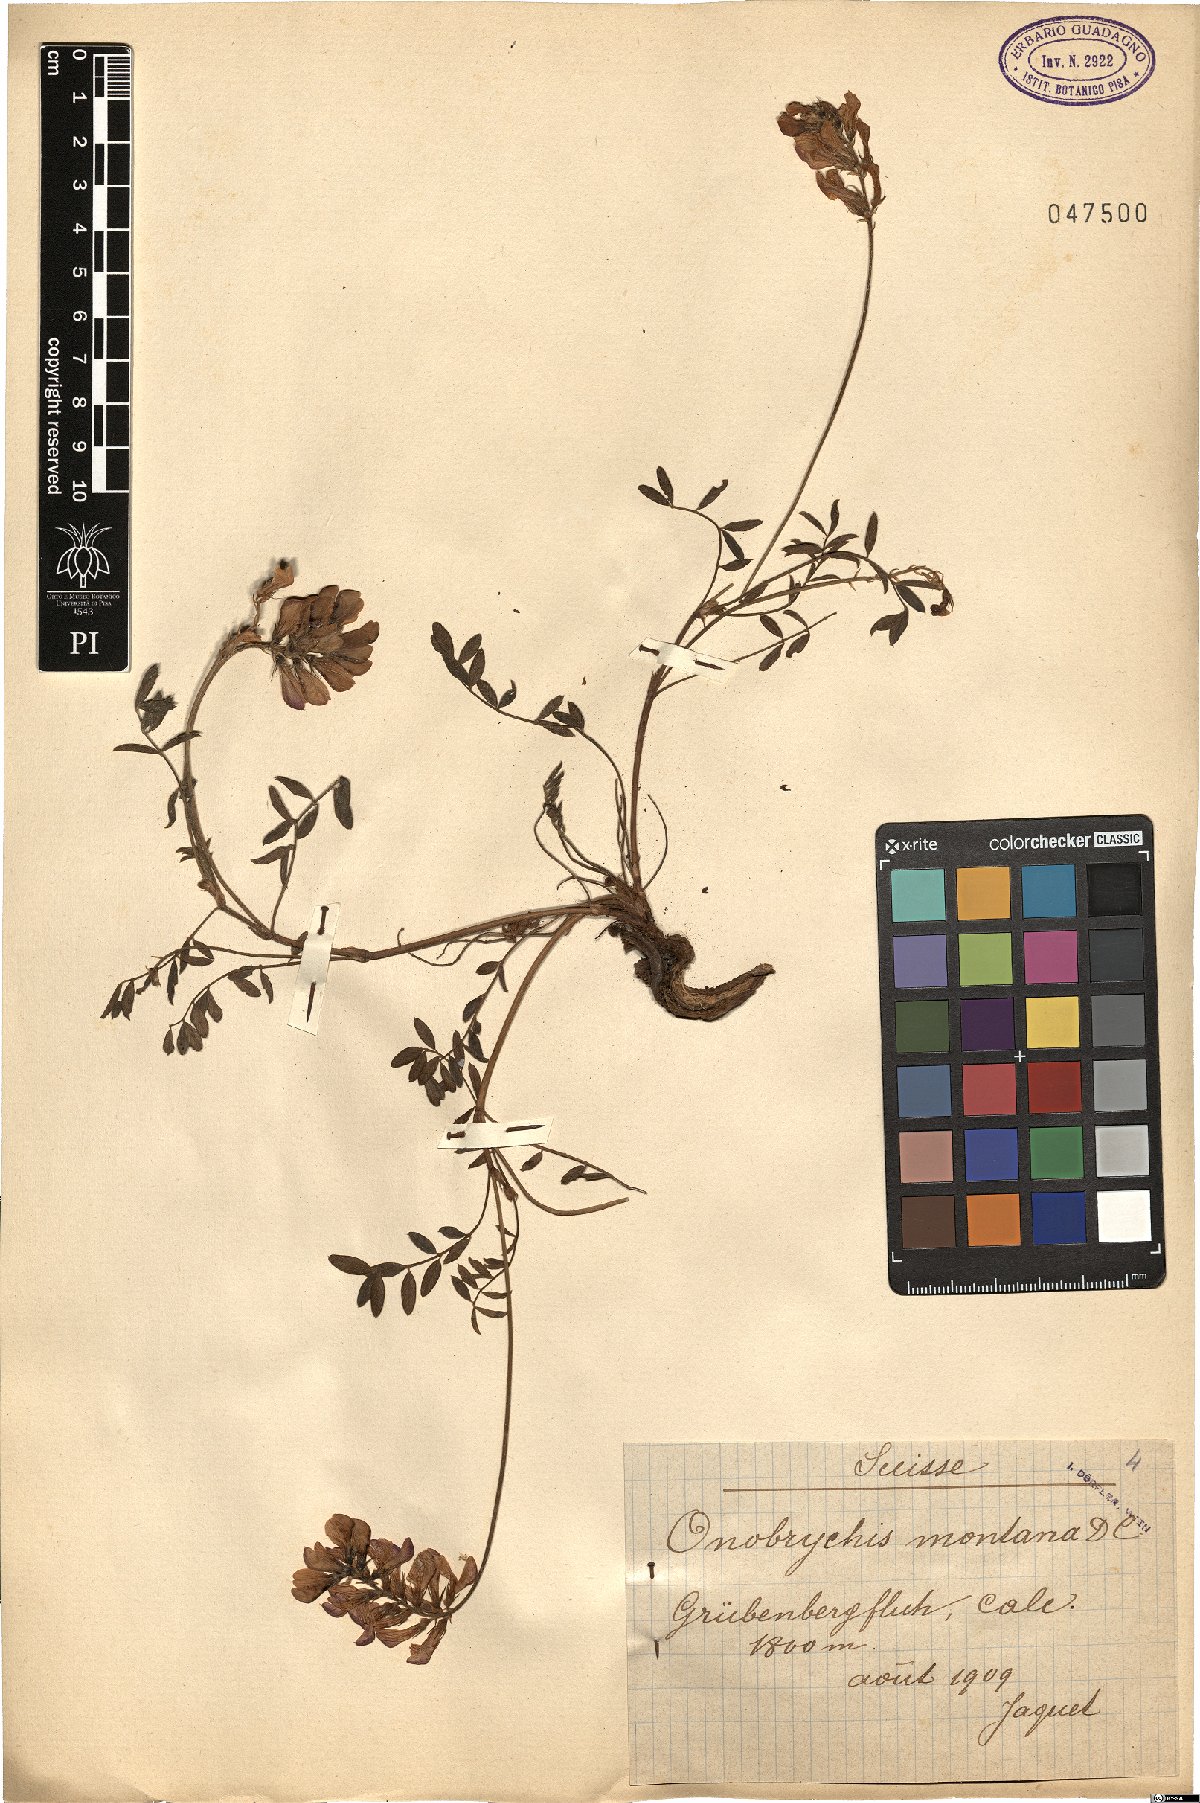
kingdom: Plantae
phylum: Tracheophyta
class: Magnoliopsida
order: Fabales
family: Fabaceae
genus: Onobrychis
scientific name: Onobrychis montana
